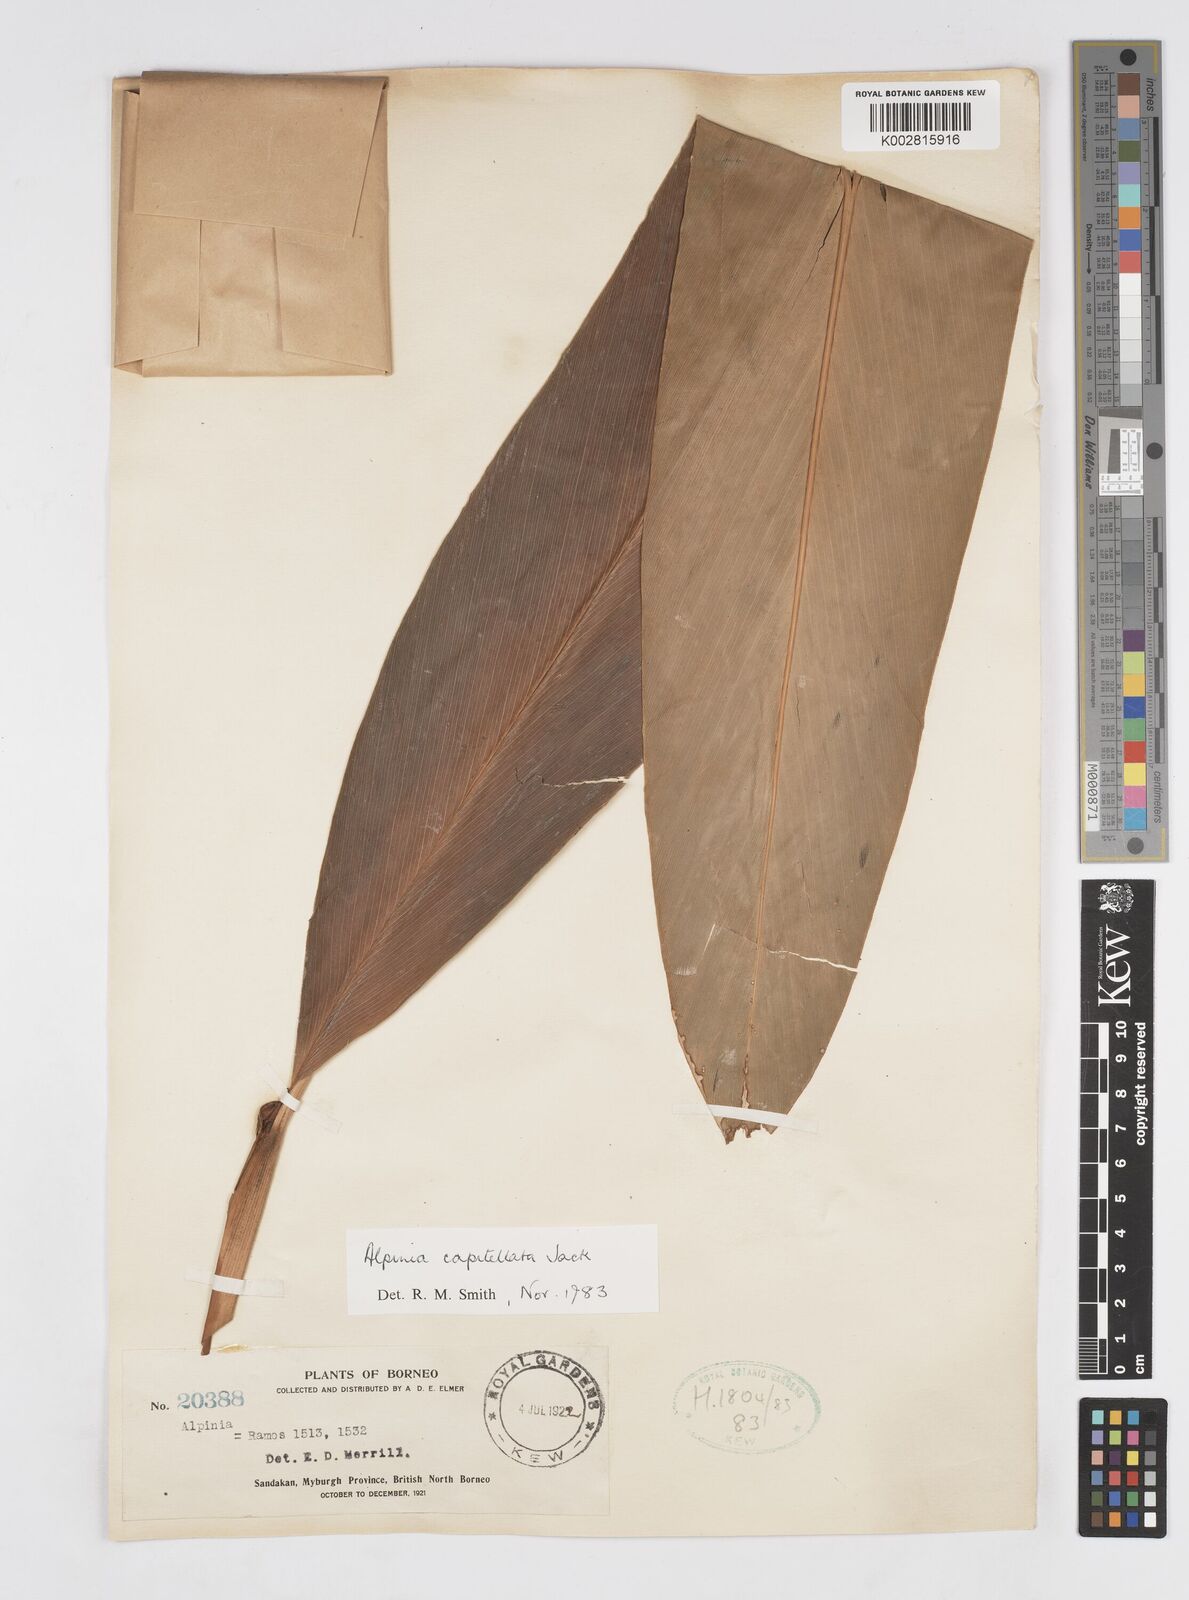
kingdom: Plantae
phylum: Tracheophyta
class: Liliopsida
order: Zingiberales
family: Zingiberaceae
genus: Alpinia
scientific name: Alpinia capitellata
